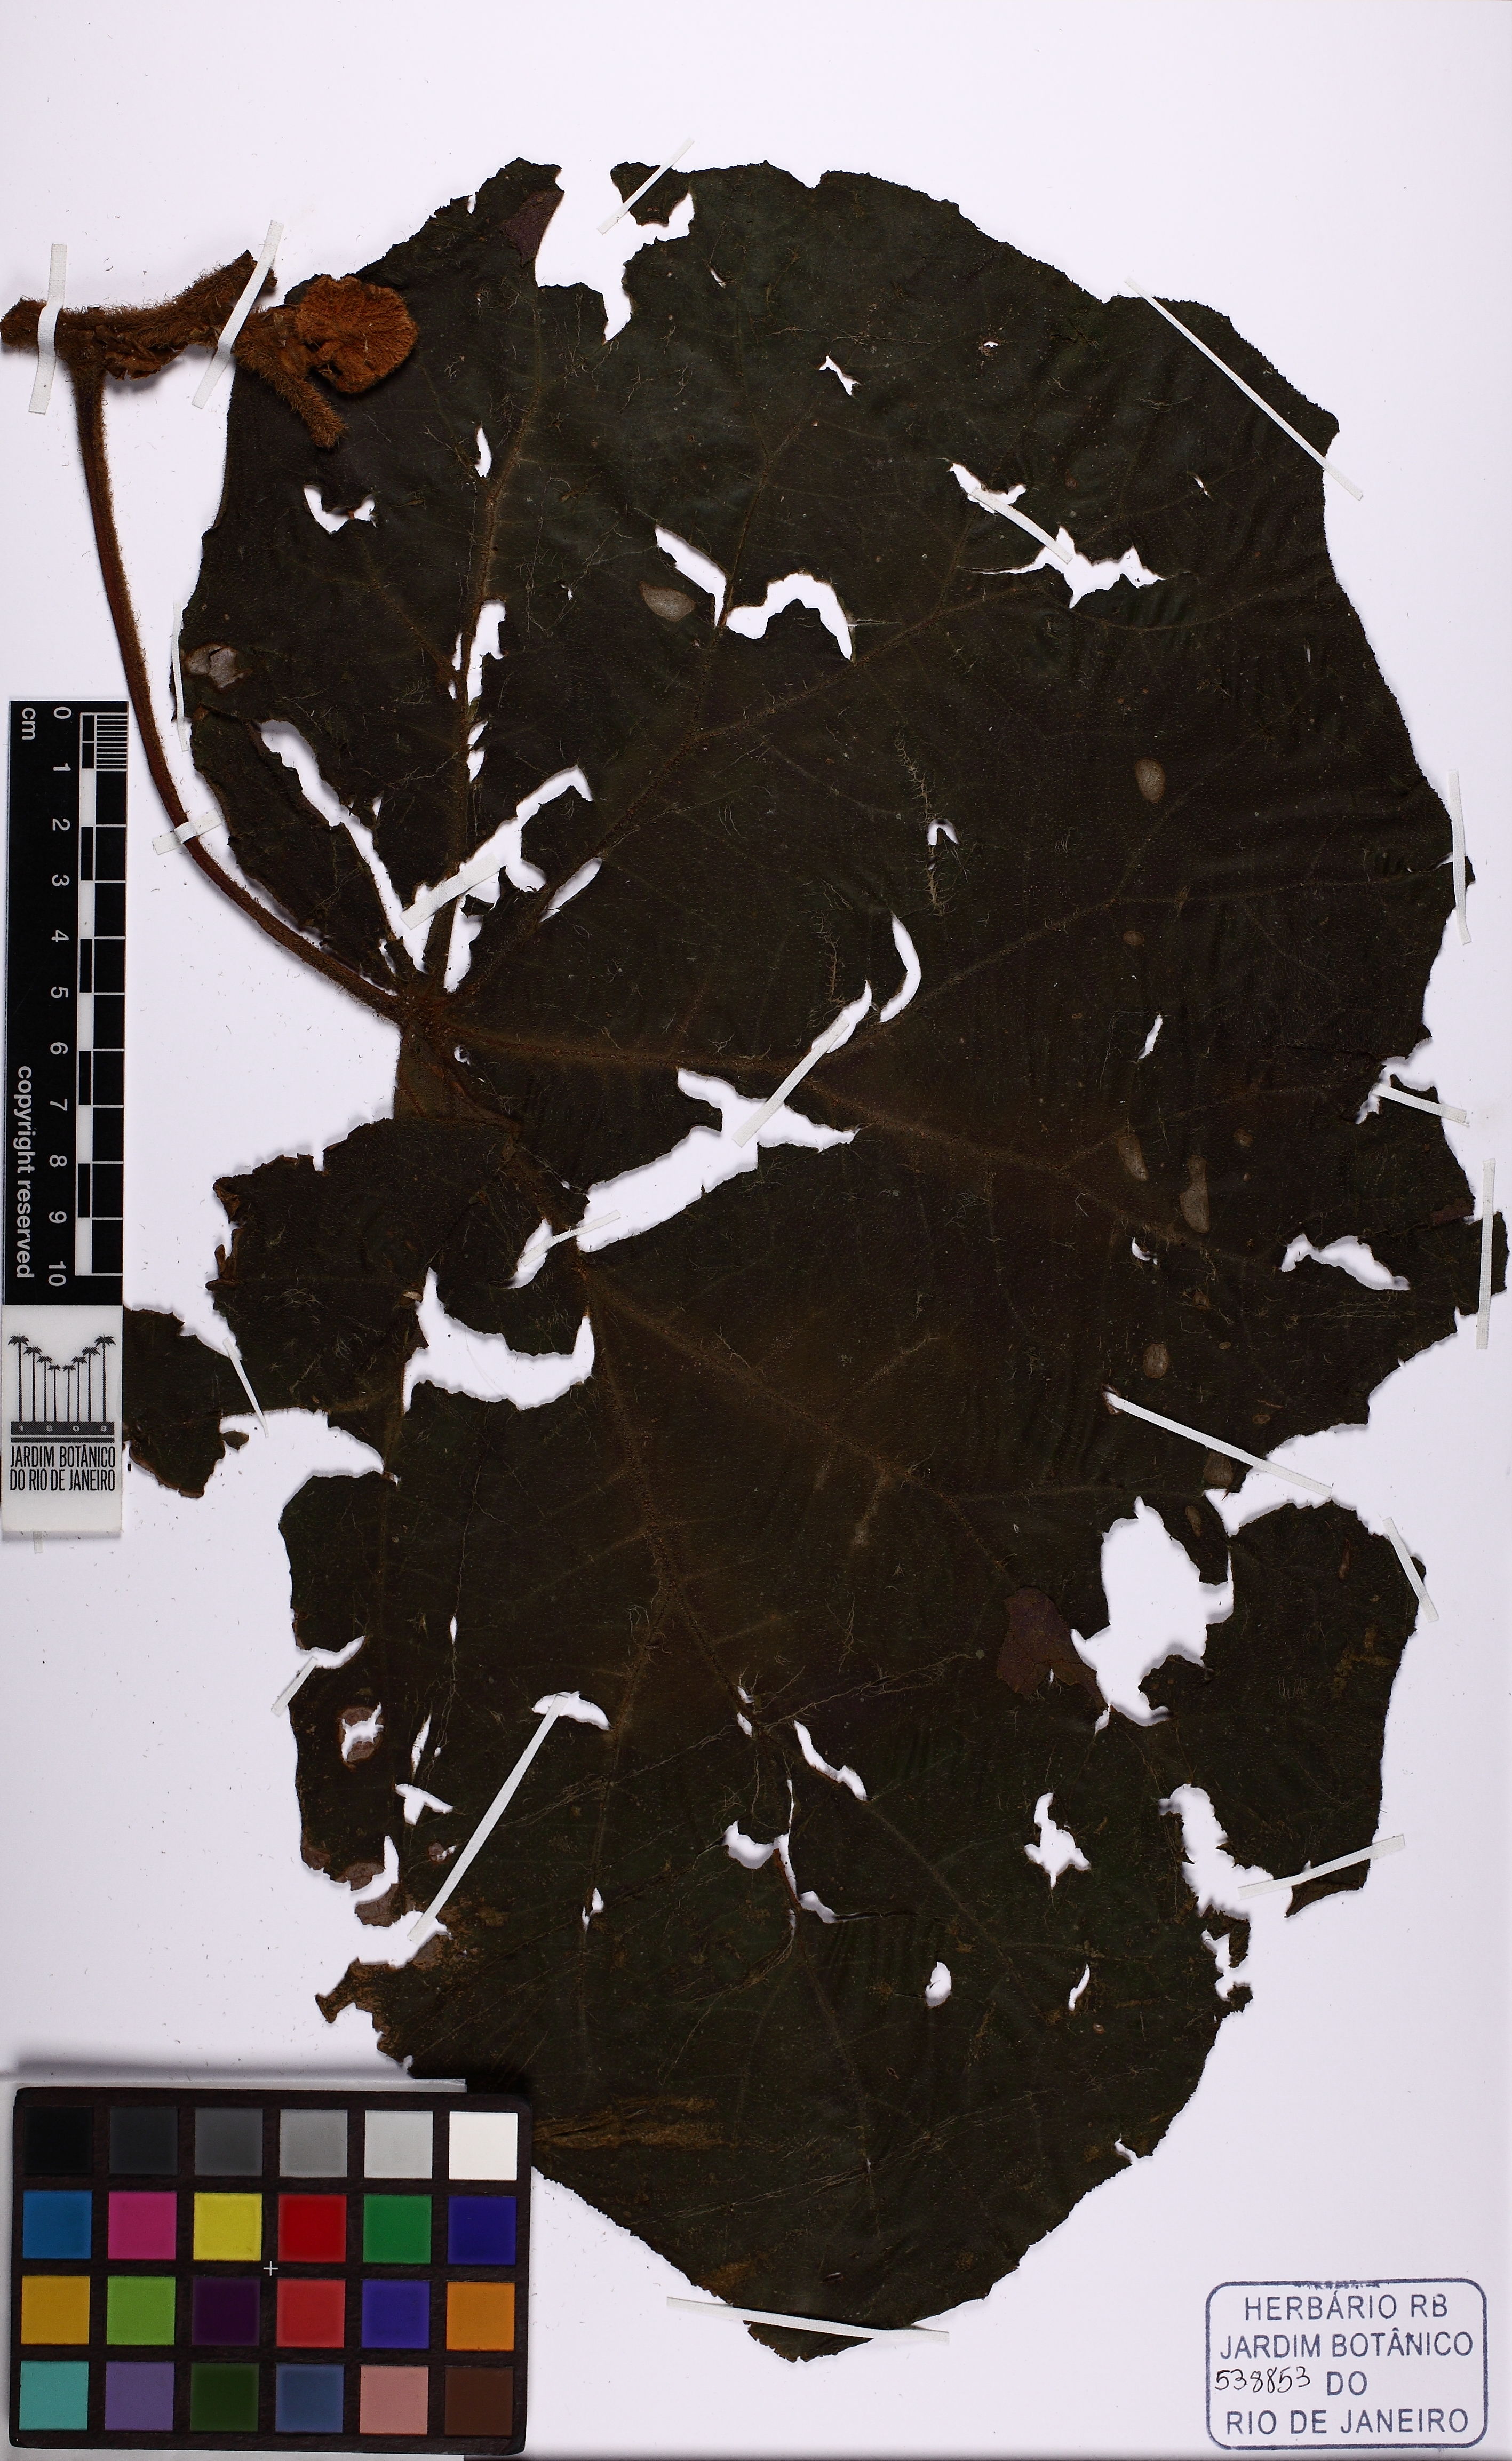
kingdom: Plantae
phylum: Tracheophyta
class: Magnoliopsida
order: Cucurbitales
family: Begoniaceae
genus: Begonia
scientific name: Begonia hispida
